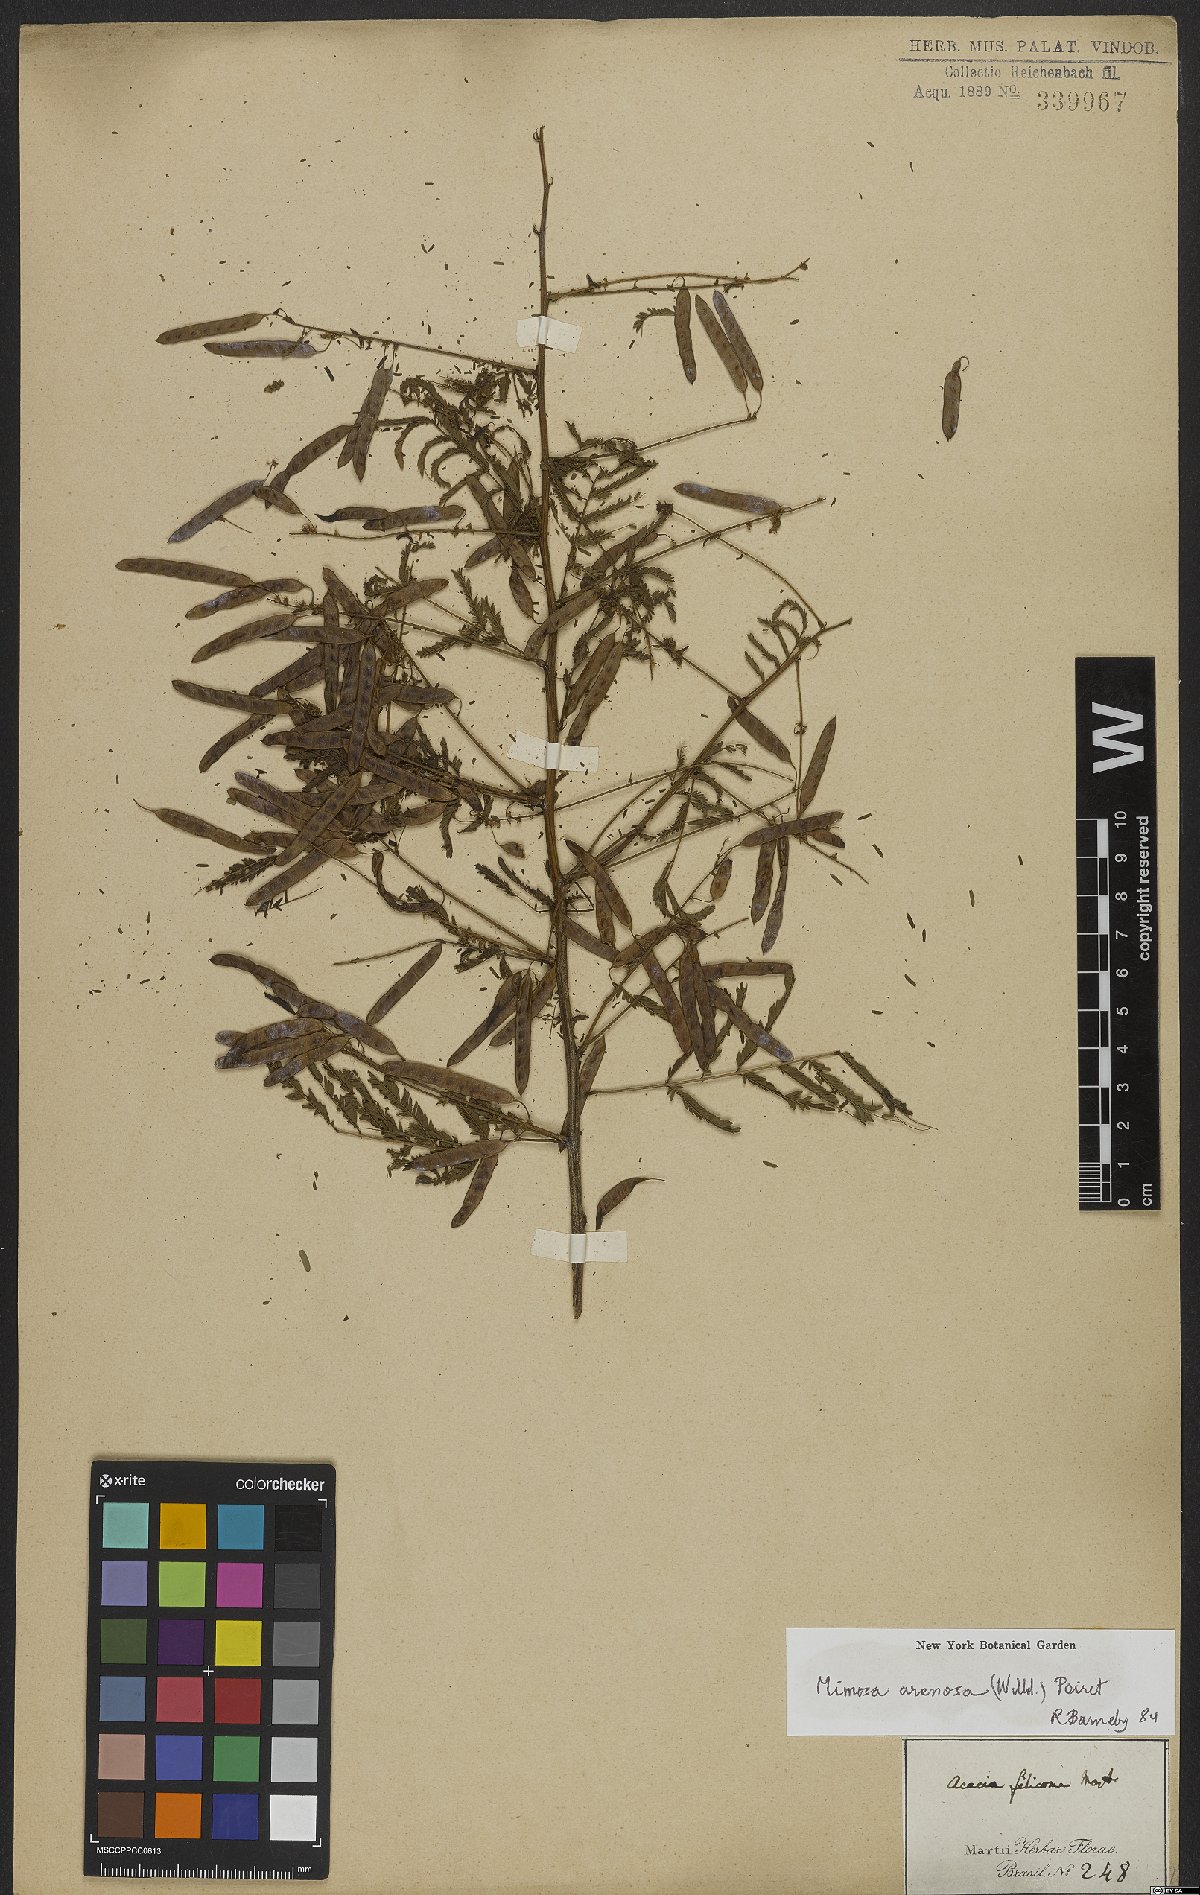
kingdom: Plantae
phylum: Tracheophyta
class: Magnoliopsida
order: Fabales
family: Fabaceae
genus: Mimosa
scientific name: Mimosa arenosa
